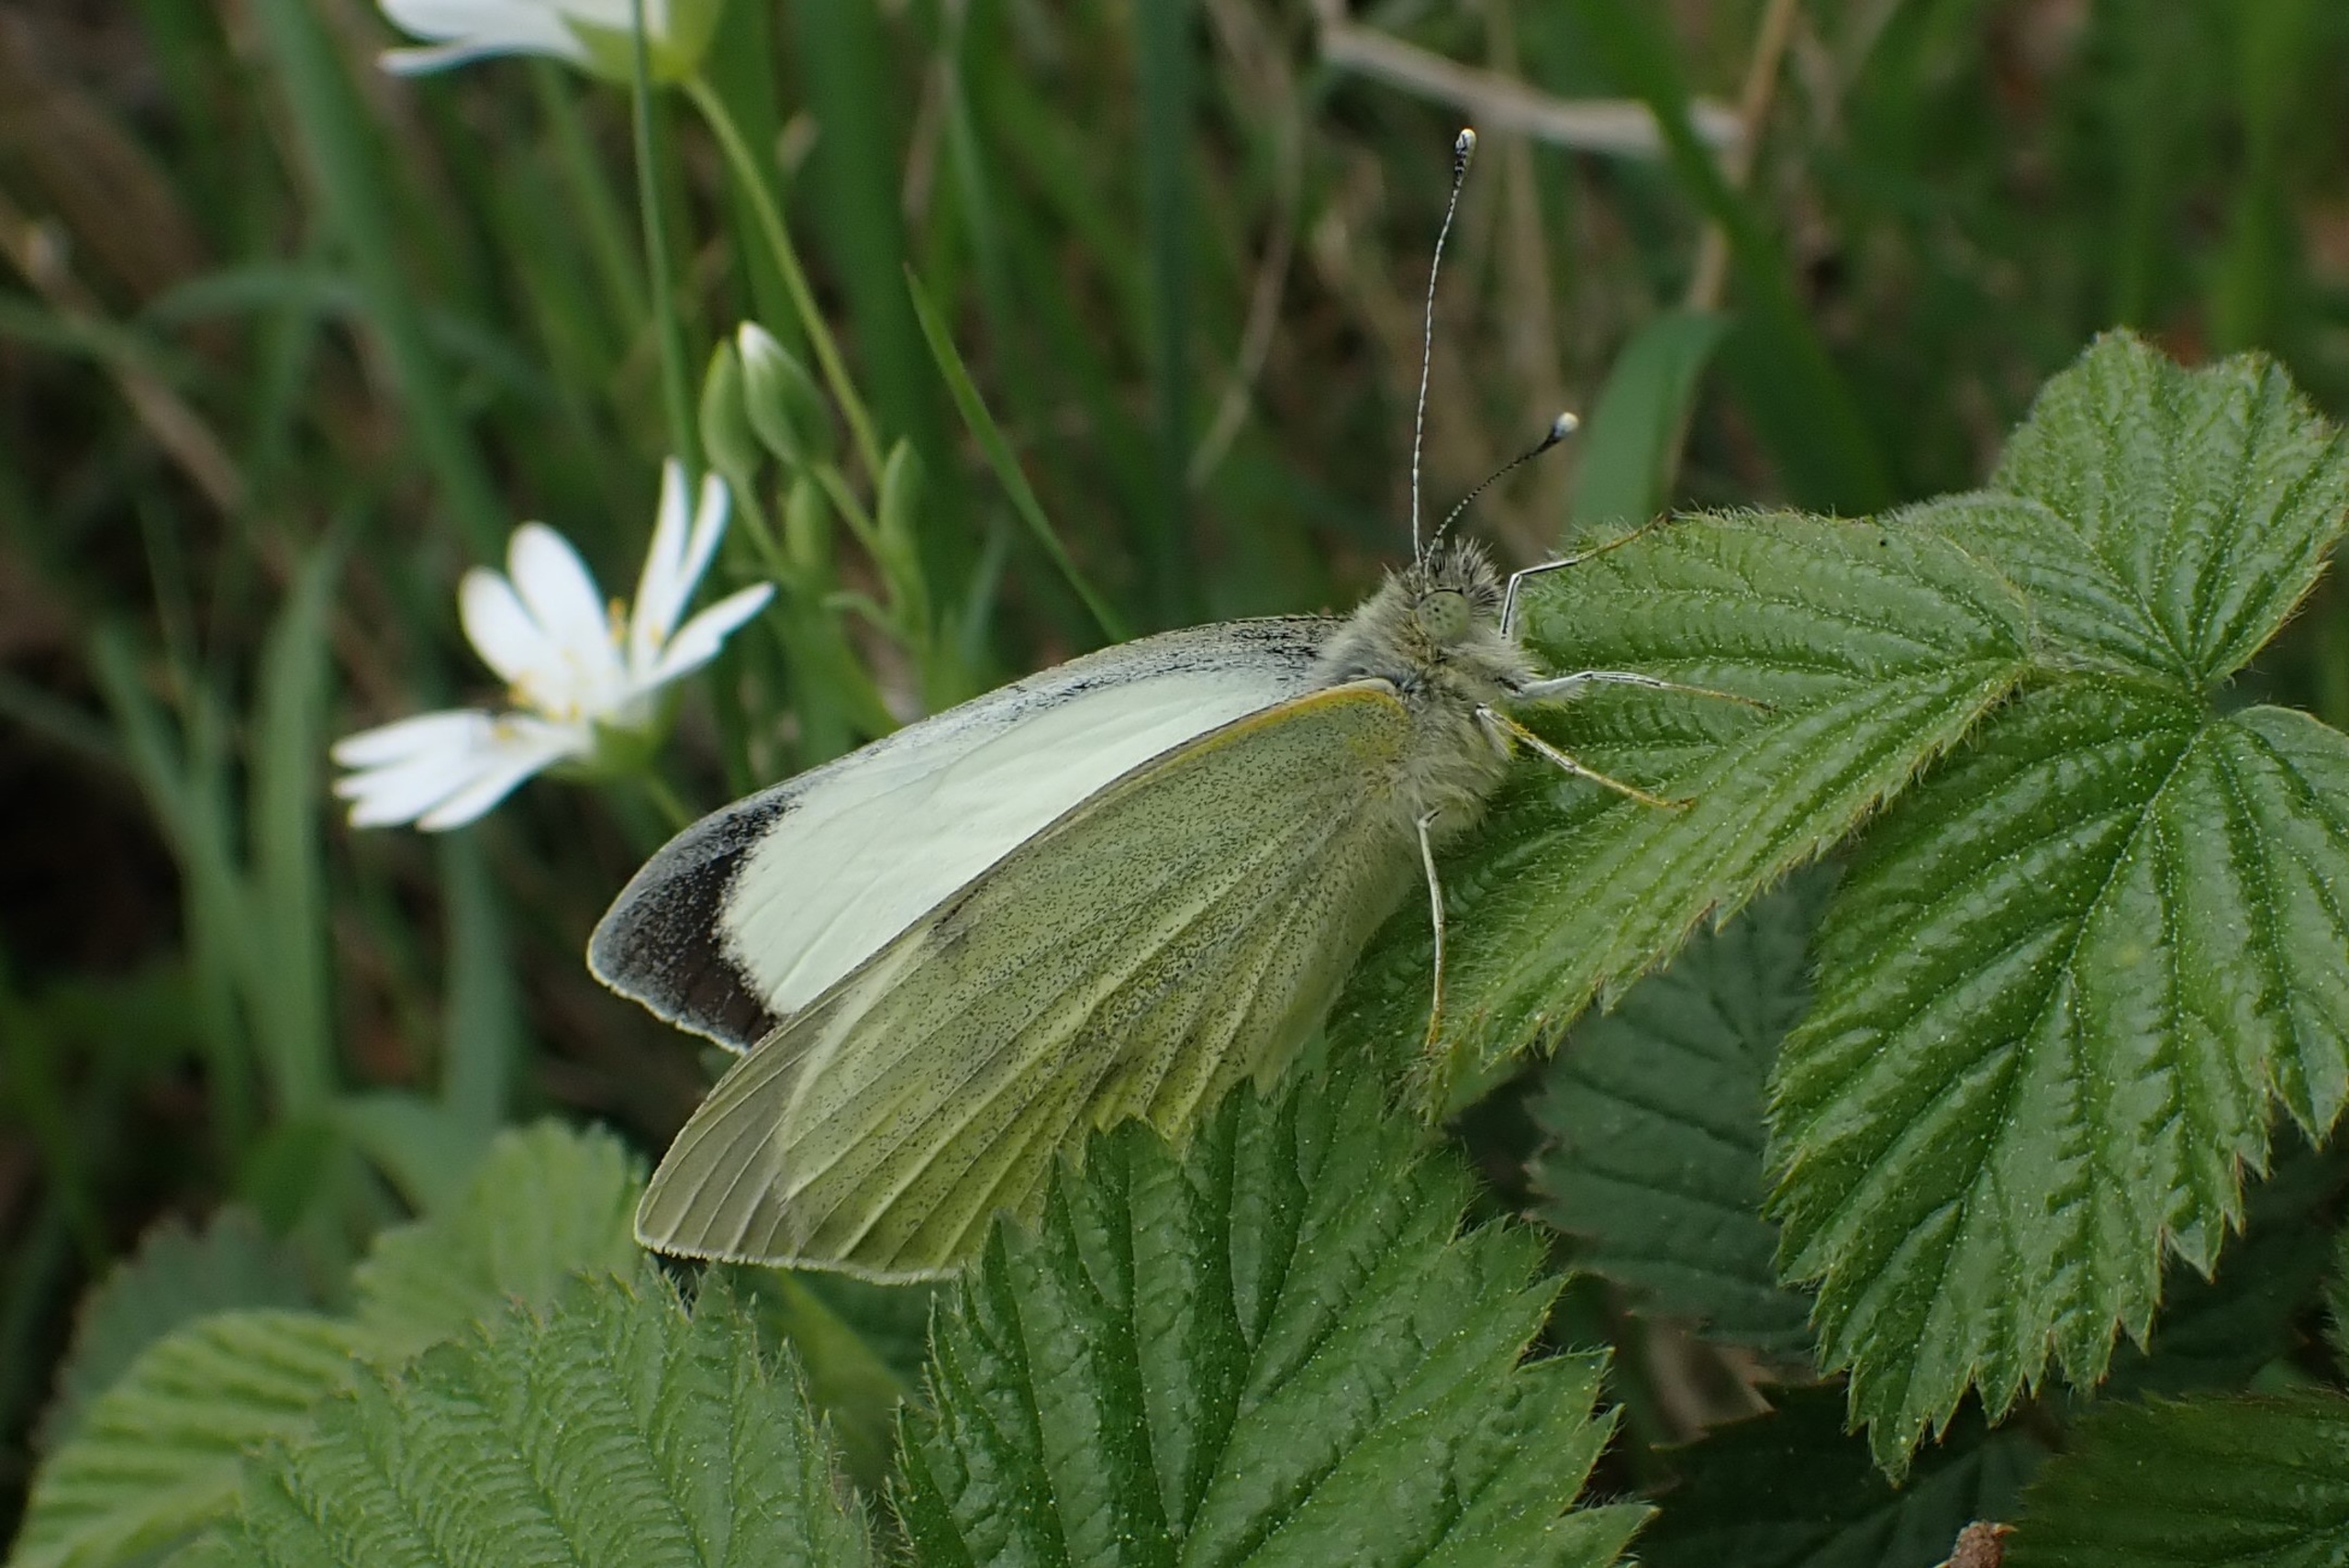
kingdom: Animalia
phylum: Arthropoda
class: Insecta
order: Lepidoptera
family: Pieridae
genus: Pieris
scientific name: Pieris brassicae
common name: Stor kålsommerfugl
